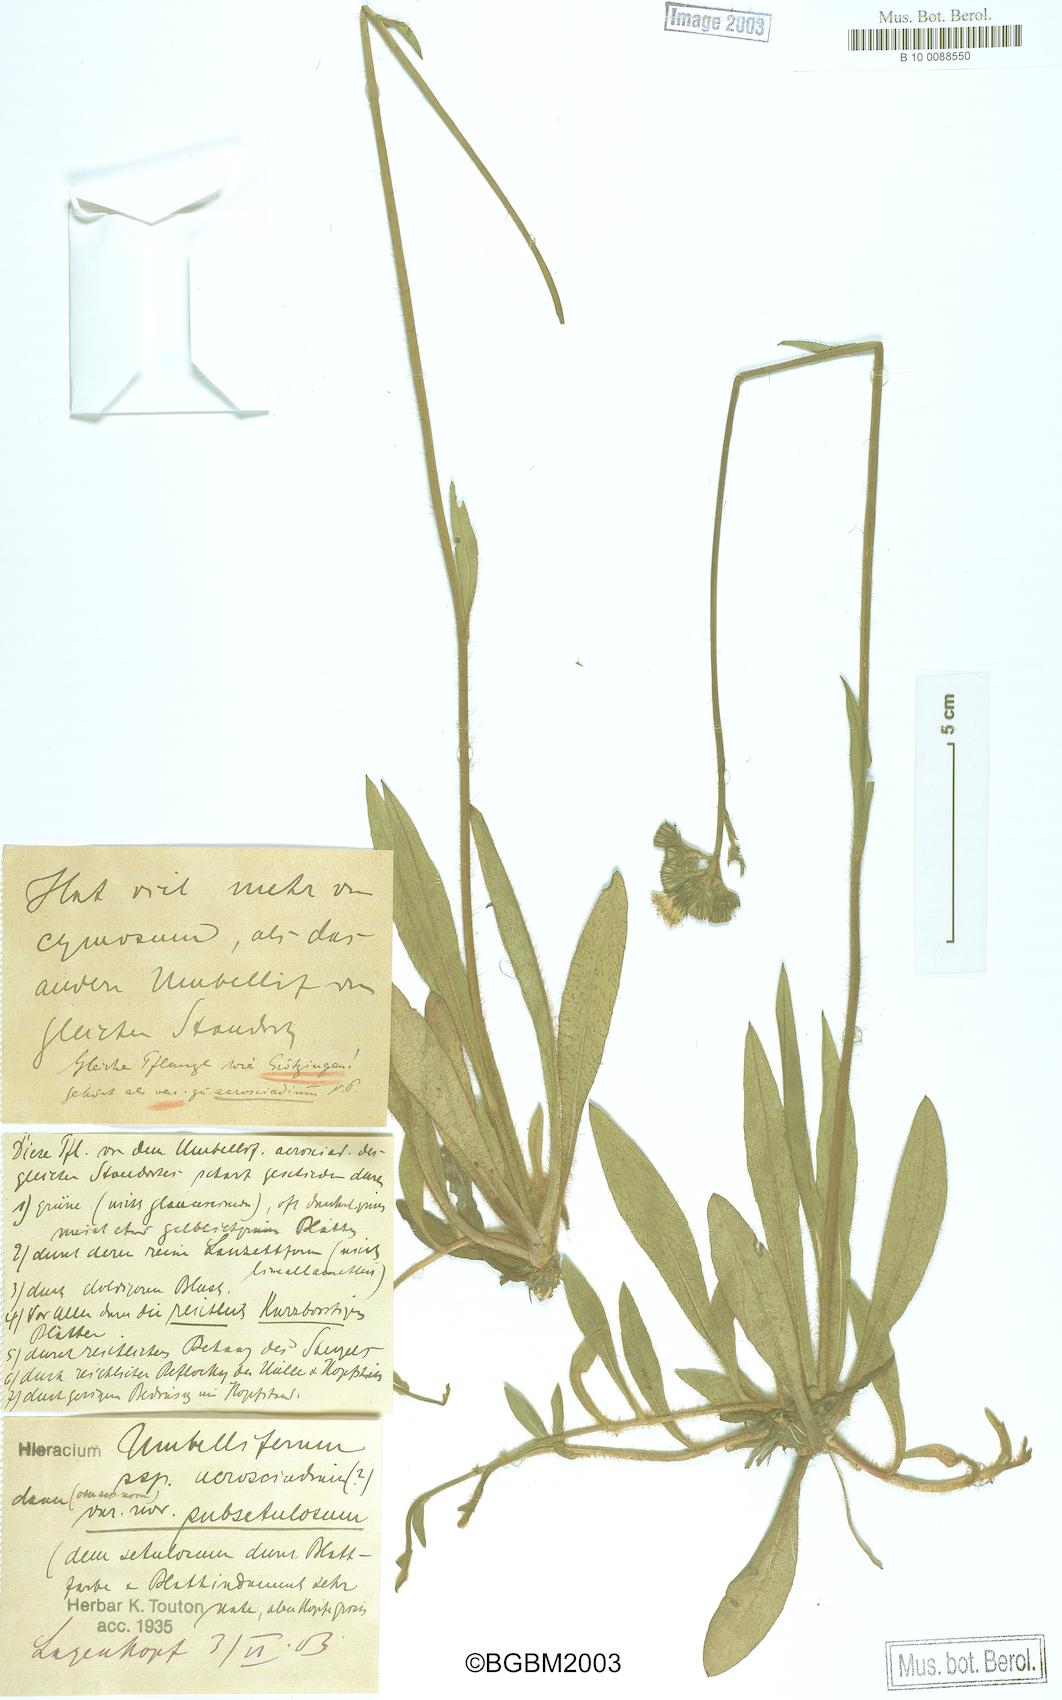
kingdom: Plantae
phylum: Tracheophyta
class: Magnoliopsida
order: Asterales
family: Asteraceae
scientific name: Asteraceae
